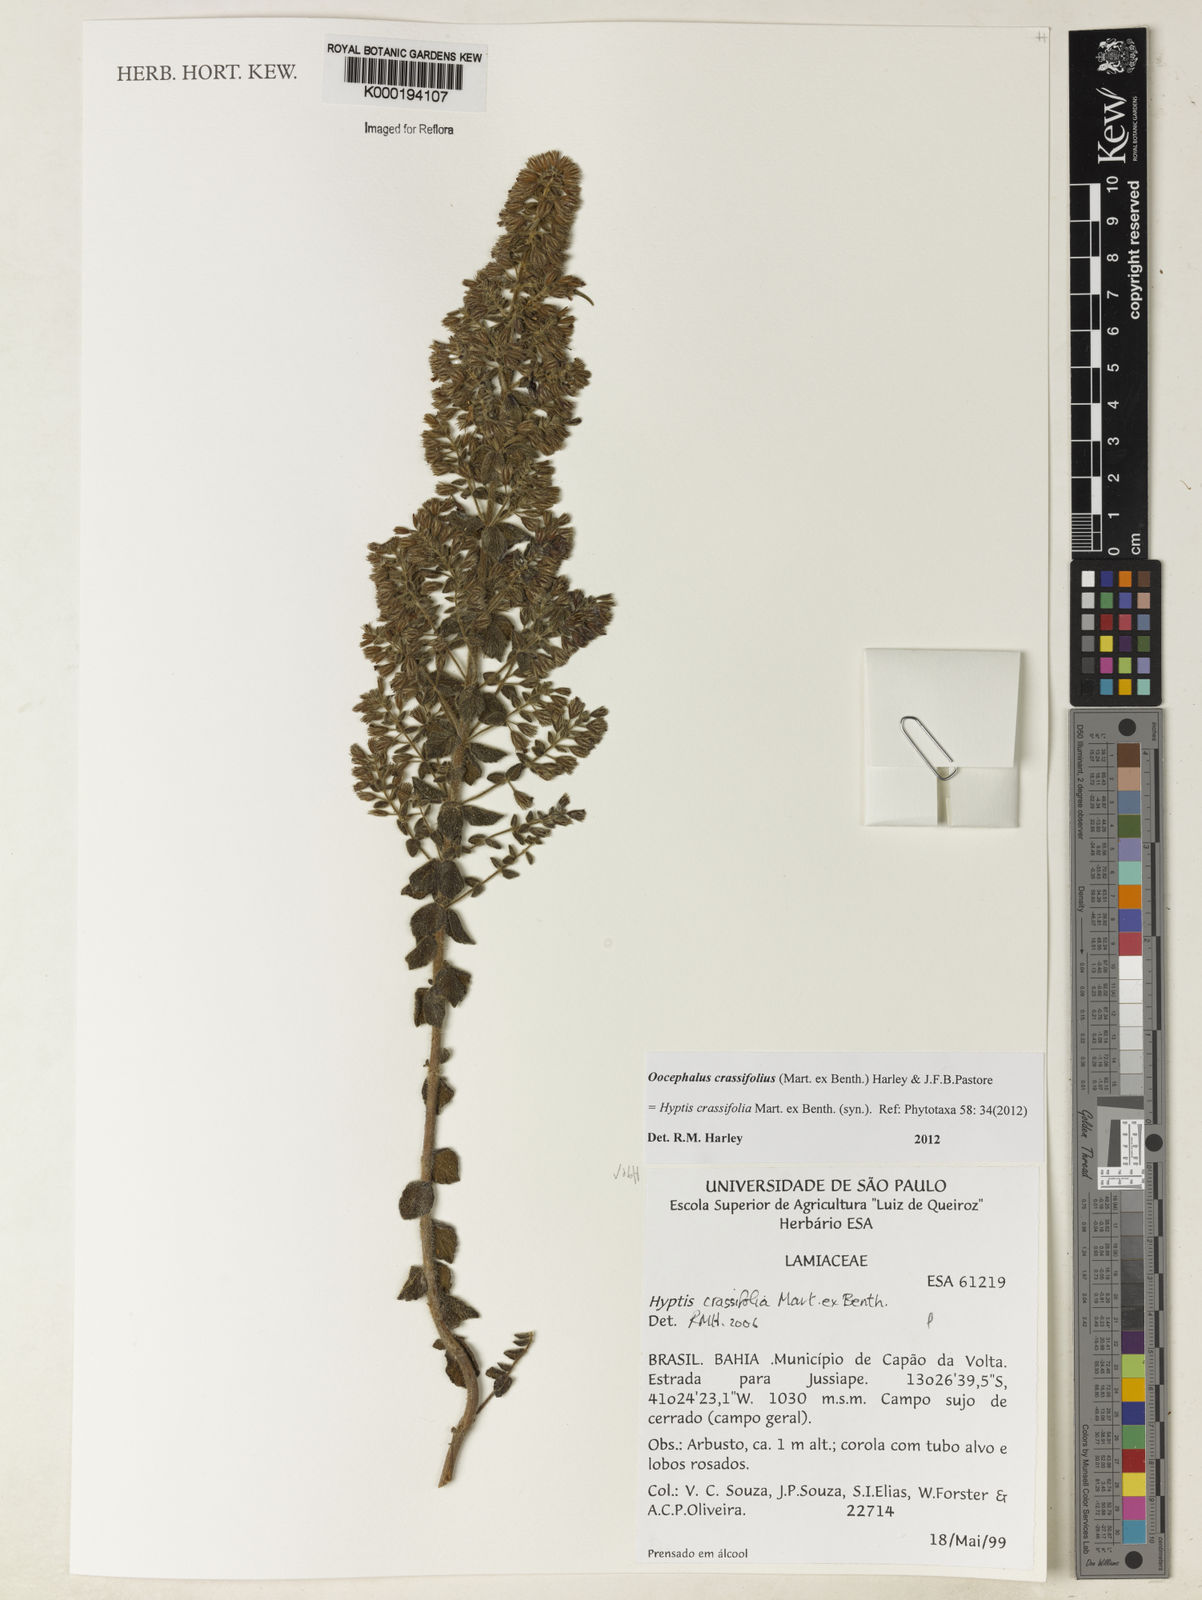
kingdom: Plantae
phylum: Tracheophyta
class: Magnoliopsida
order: Lamiales
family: Lamiaceae
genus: Oocephalus
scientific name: Oocephalus crassifolius
